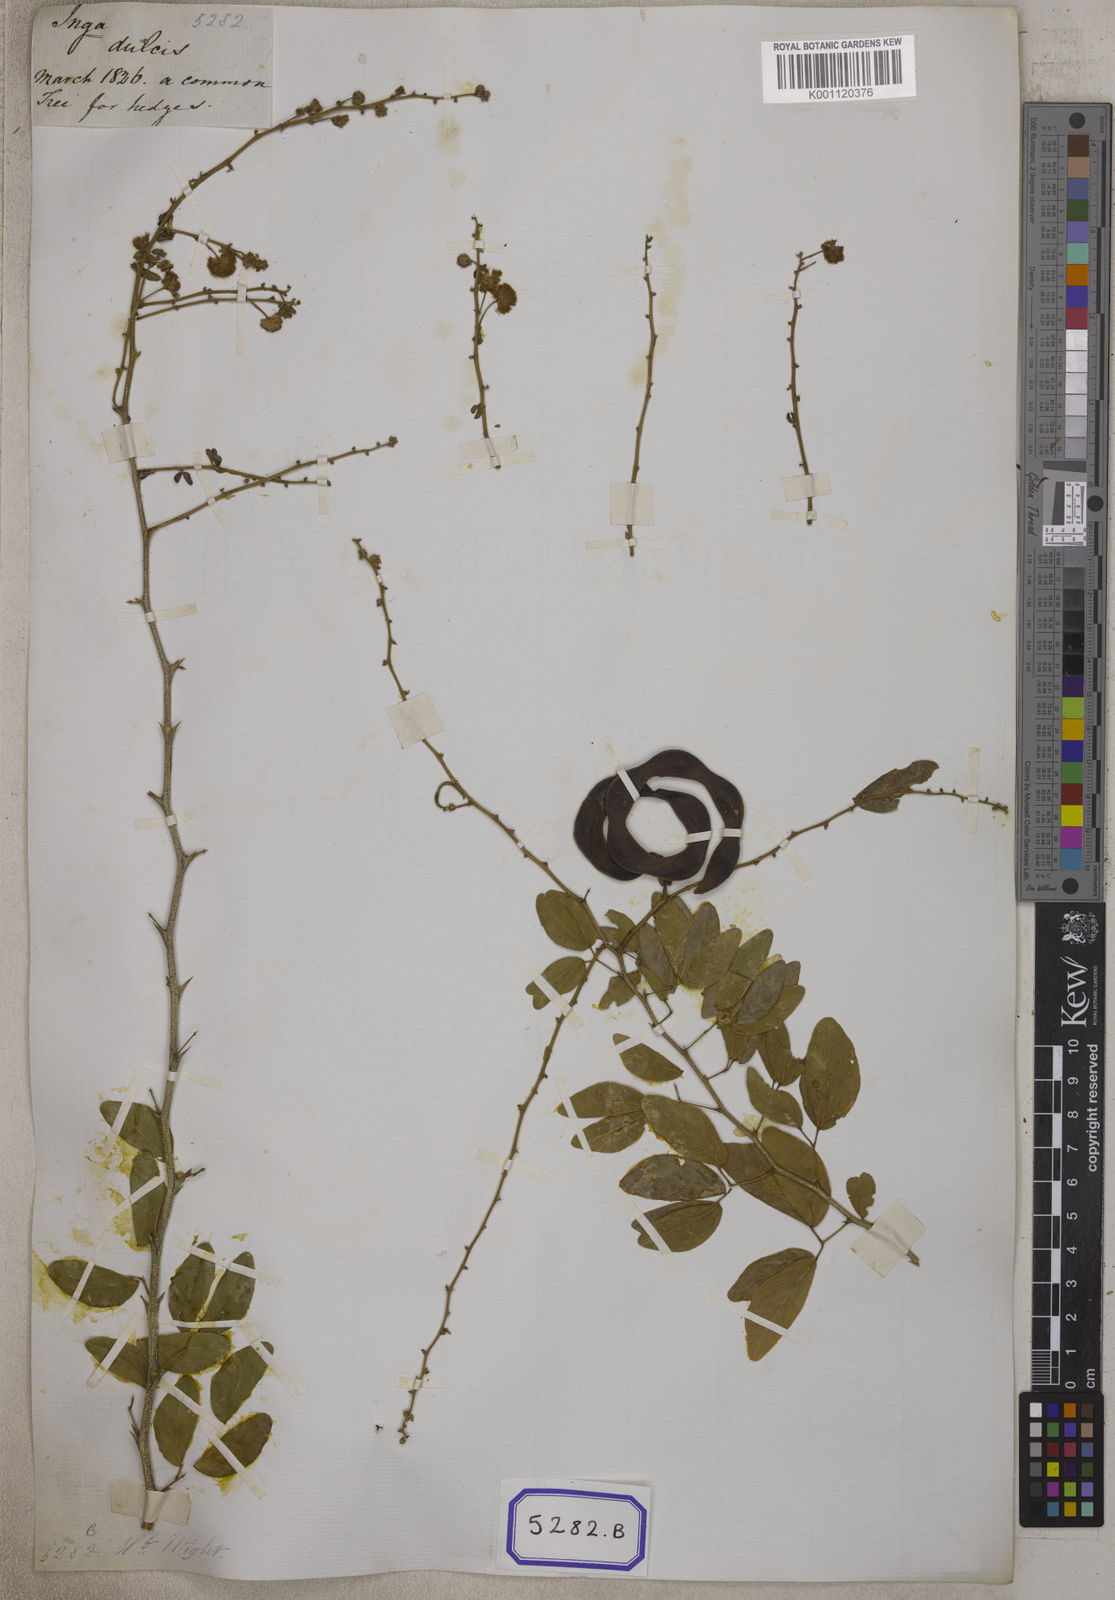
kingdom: Plantae
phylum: Tracheophyta
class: Magnoliopsida
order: Fabales
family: Fabaceae
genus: Pithecellobium
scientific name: Pithecellobium dulce
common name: Monkeypod
